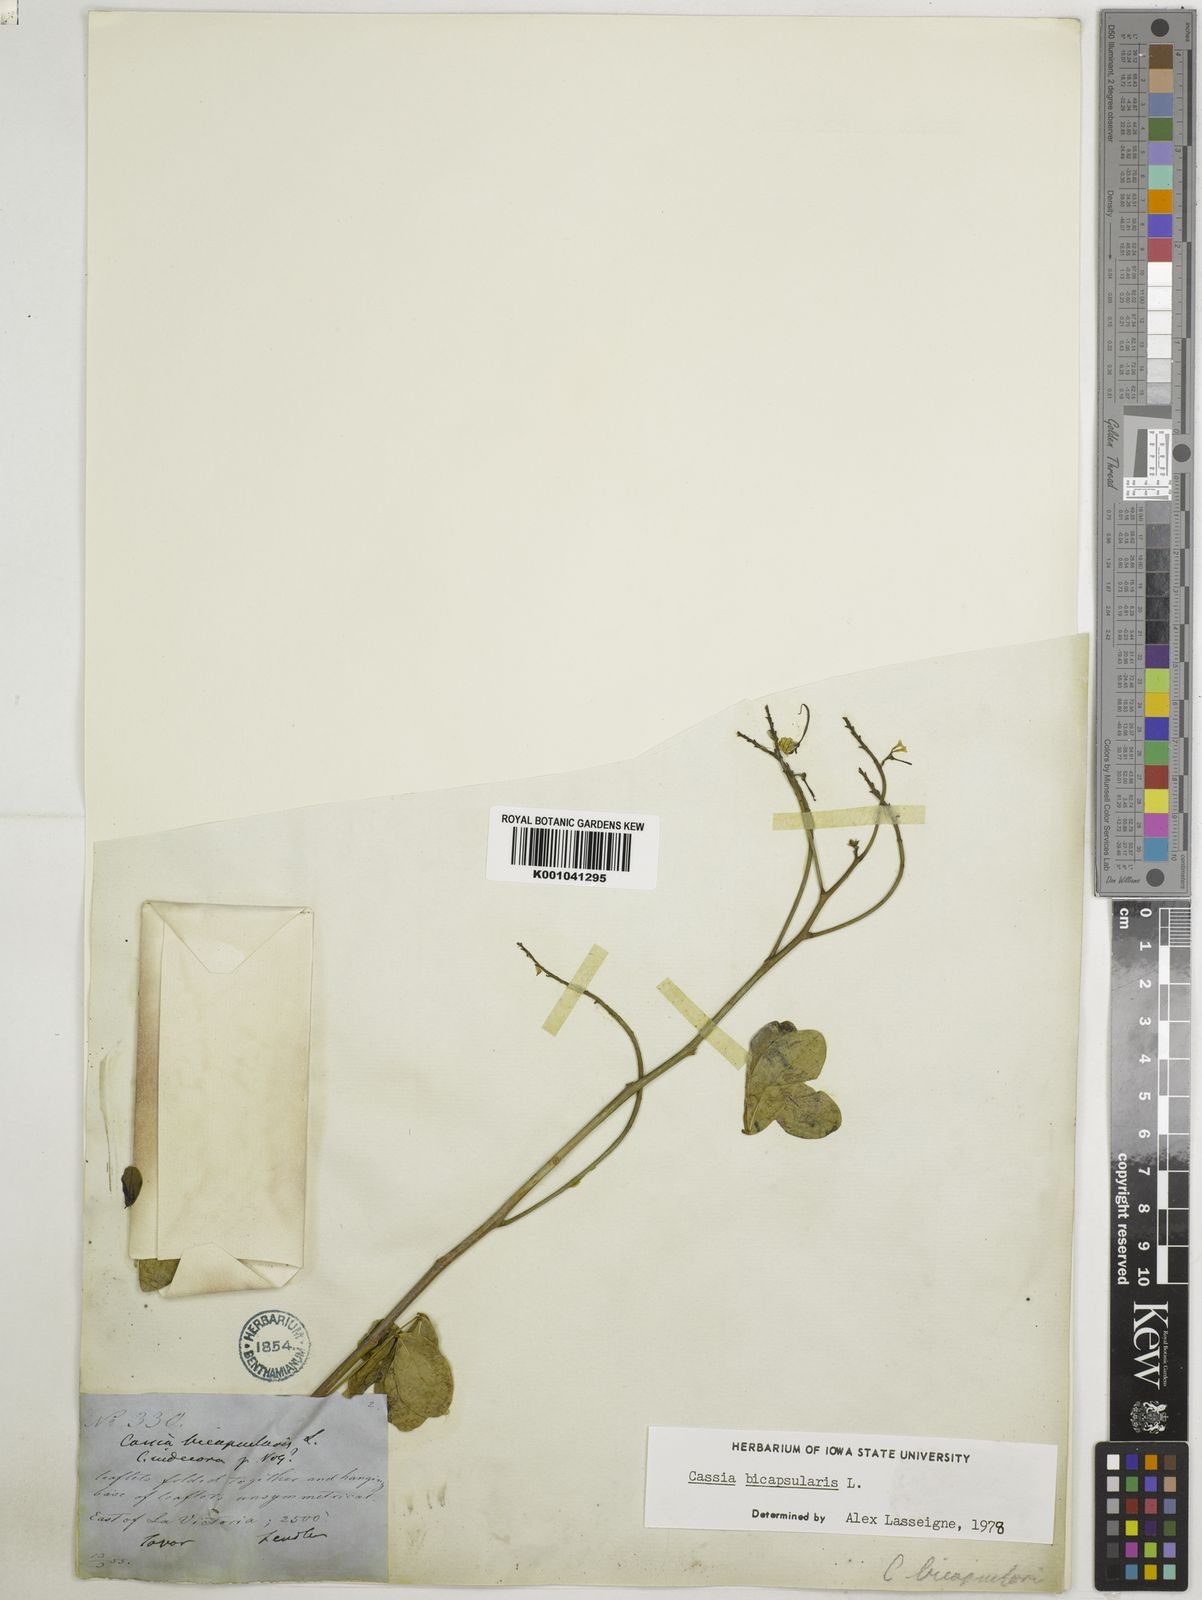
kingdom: Plantae
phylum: Tracheophyta
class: Magnoliopsida
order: Fabales
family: Fabaceae
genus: Senna
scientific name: Senna bicapsularis
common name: Christmasbush
